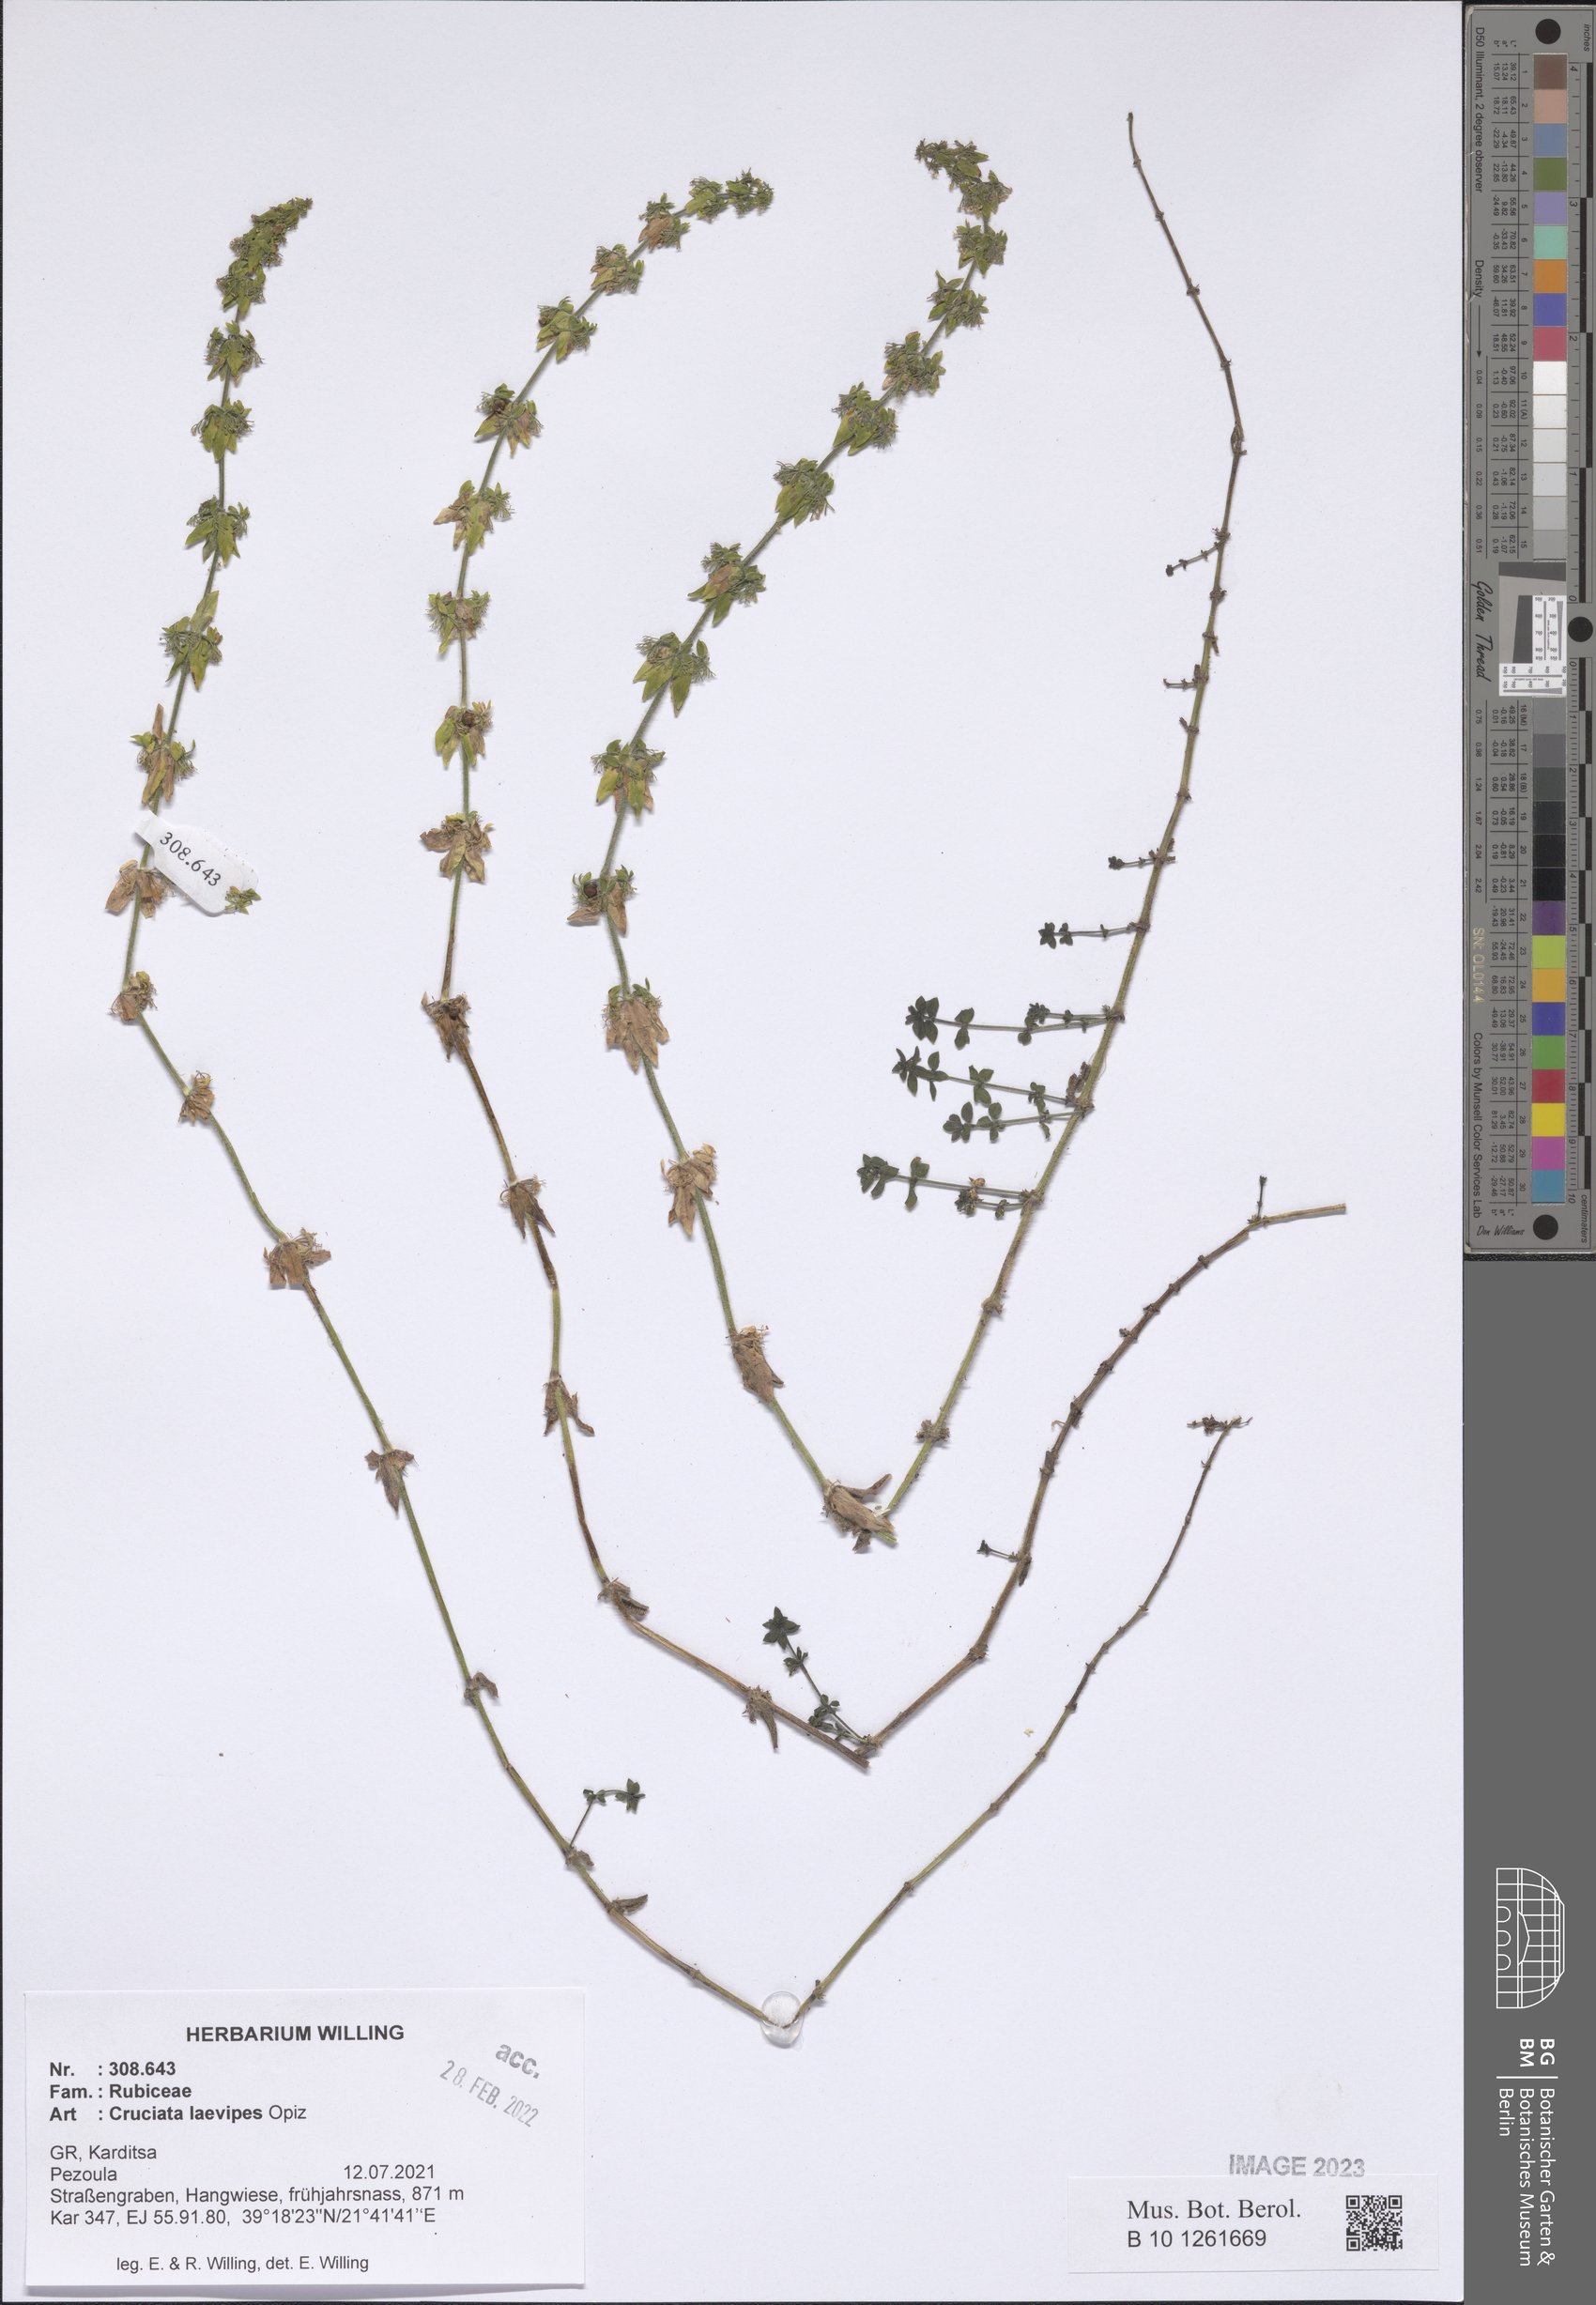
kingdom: Plantae
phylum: Tracheophyta
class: Magnoliopsida
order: Gentianales
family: Rubiaceae
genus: Cruciata
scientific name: Cruciata laevipes
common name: Crosswort
